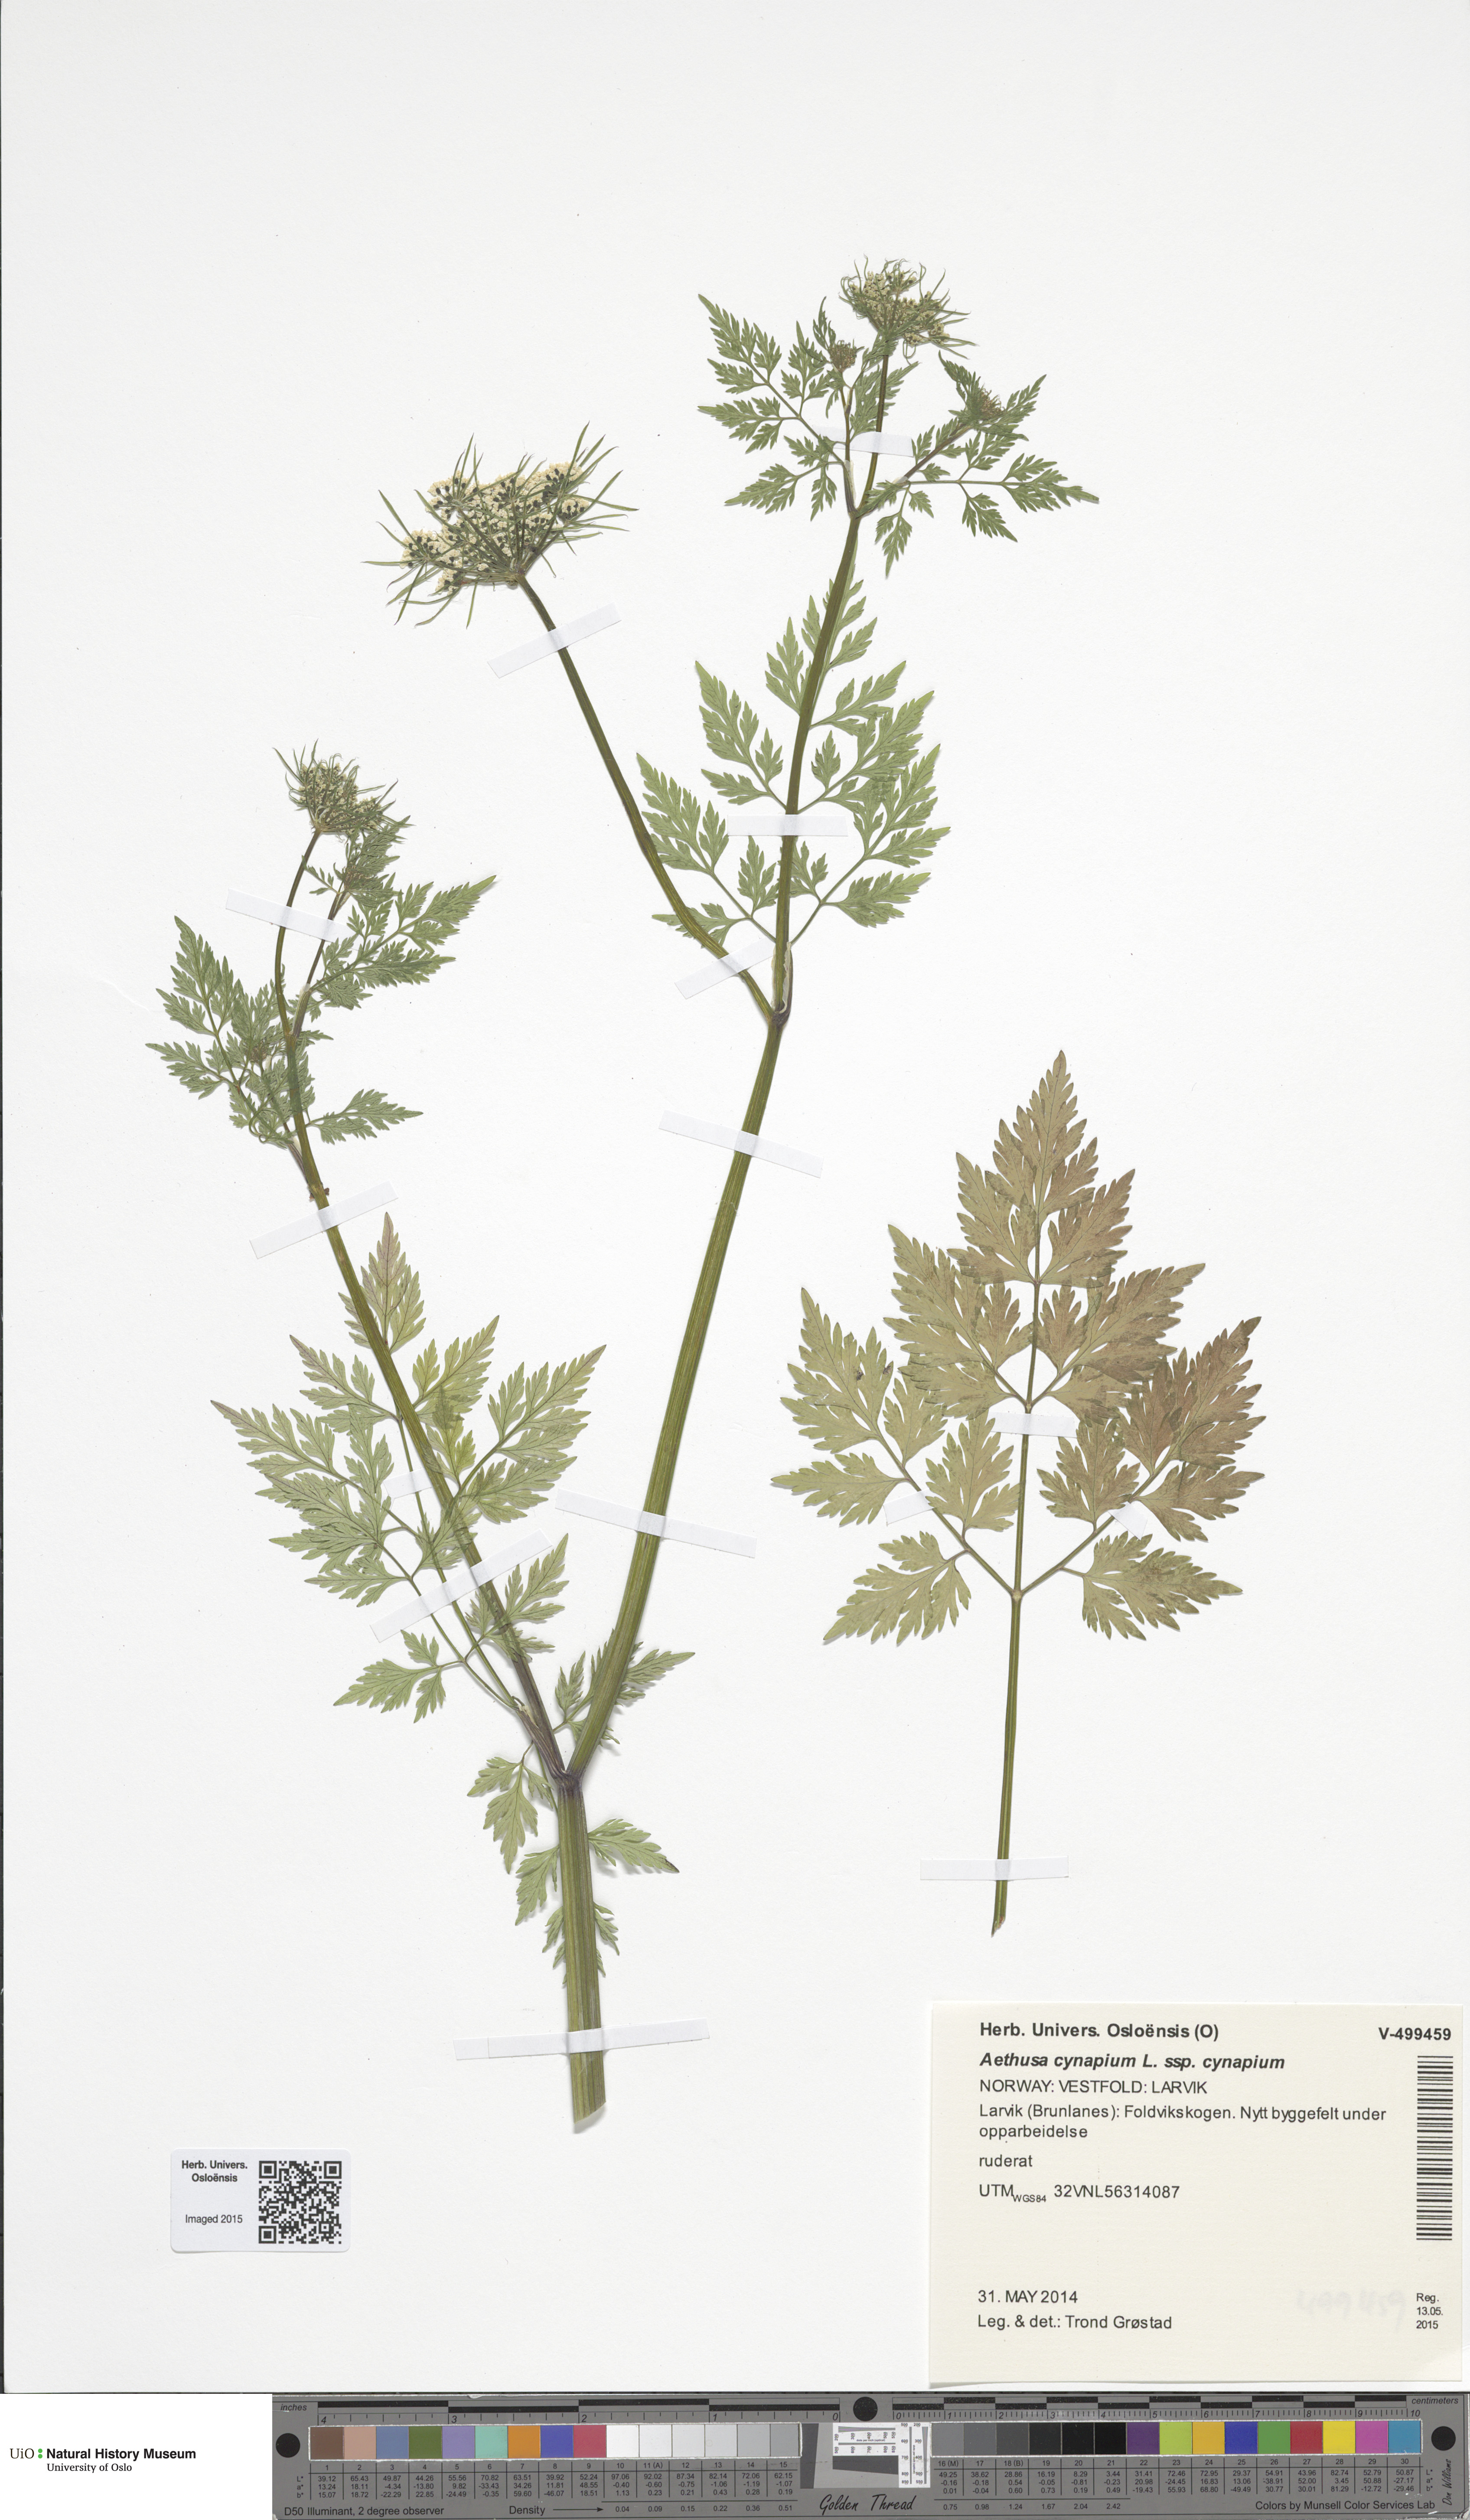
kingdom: Plantae
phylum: Tracheophyta
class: Magnoliopsida
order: Apiales
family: Apiaceae
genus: Aethusa
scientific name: Aethusa cynapium
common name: Fool's parsley
